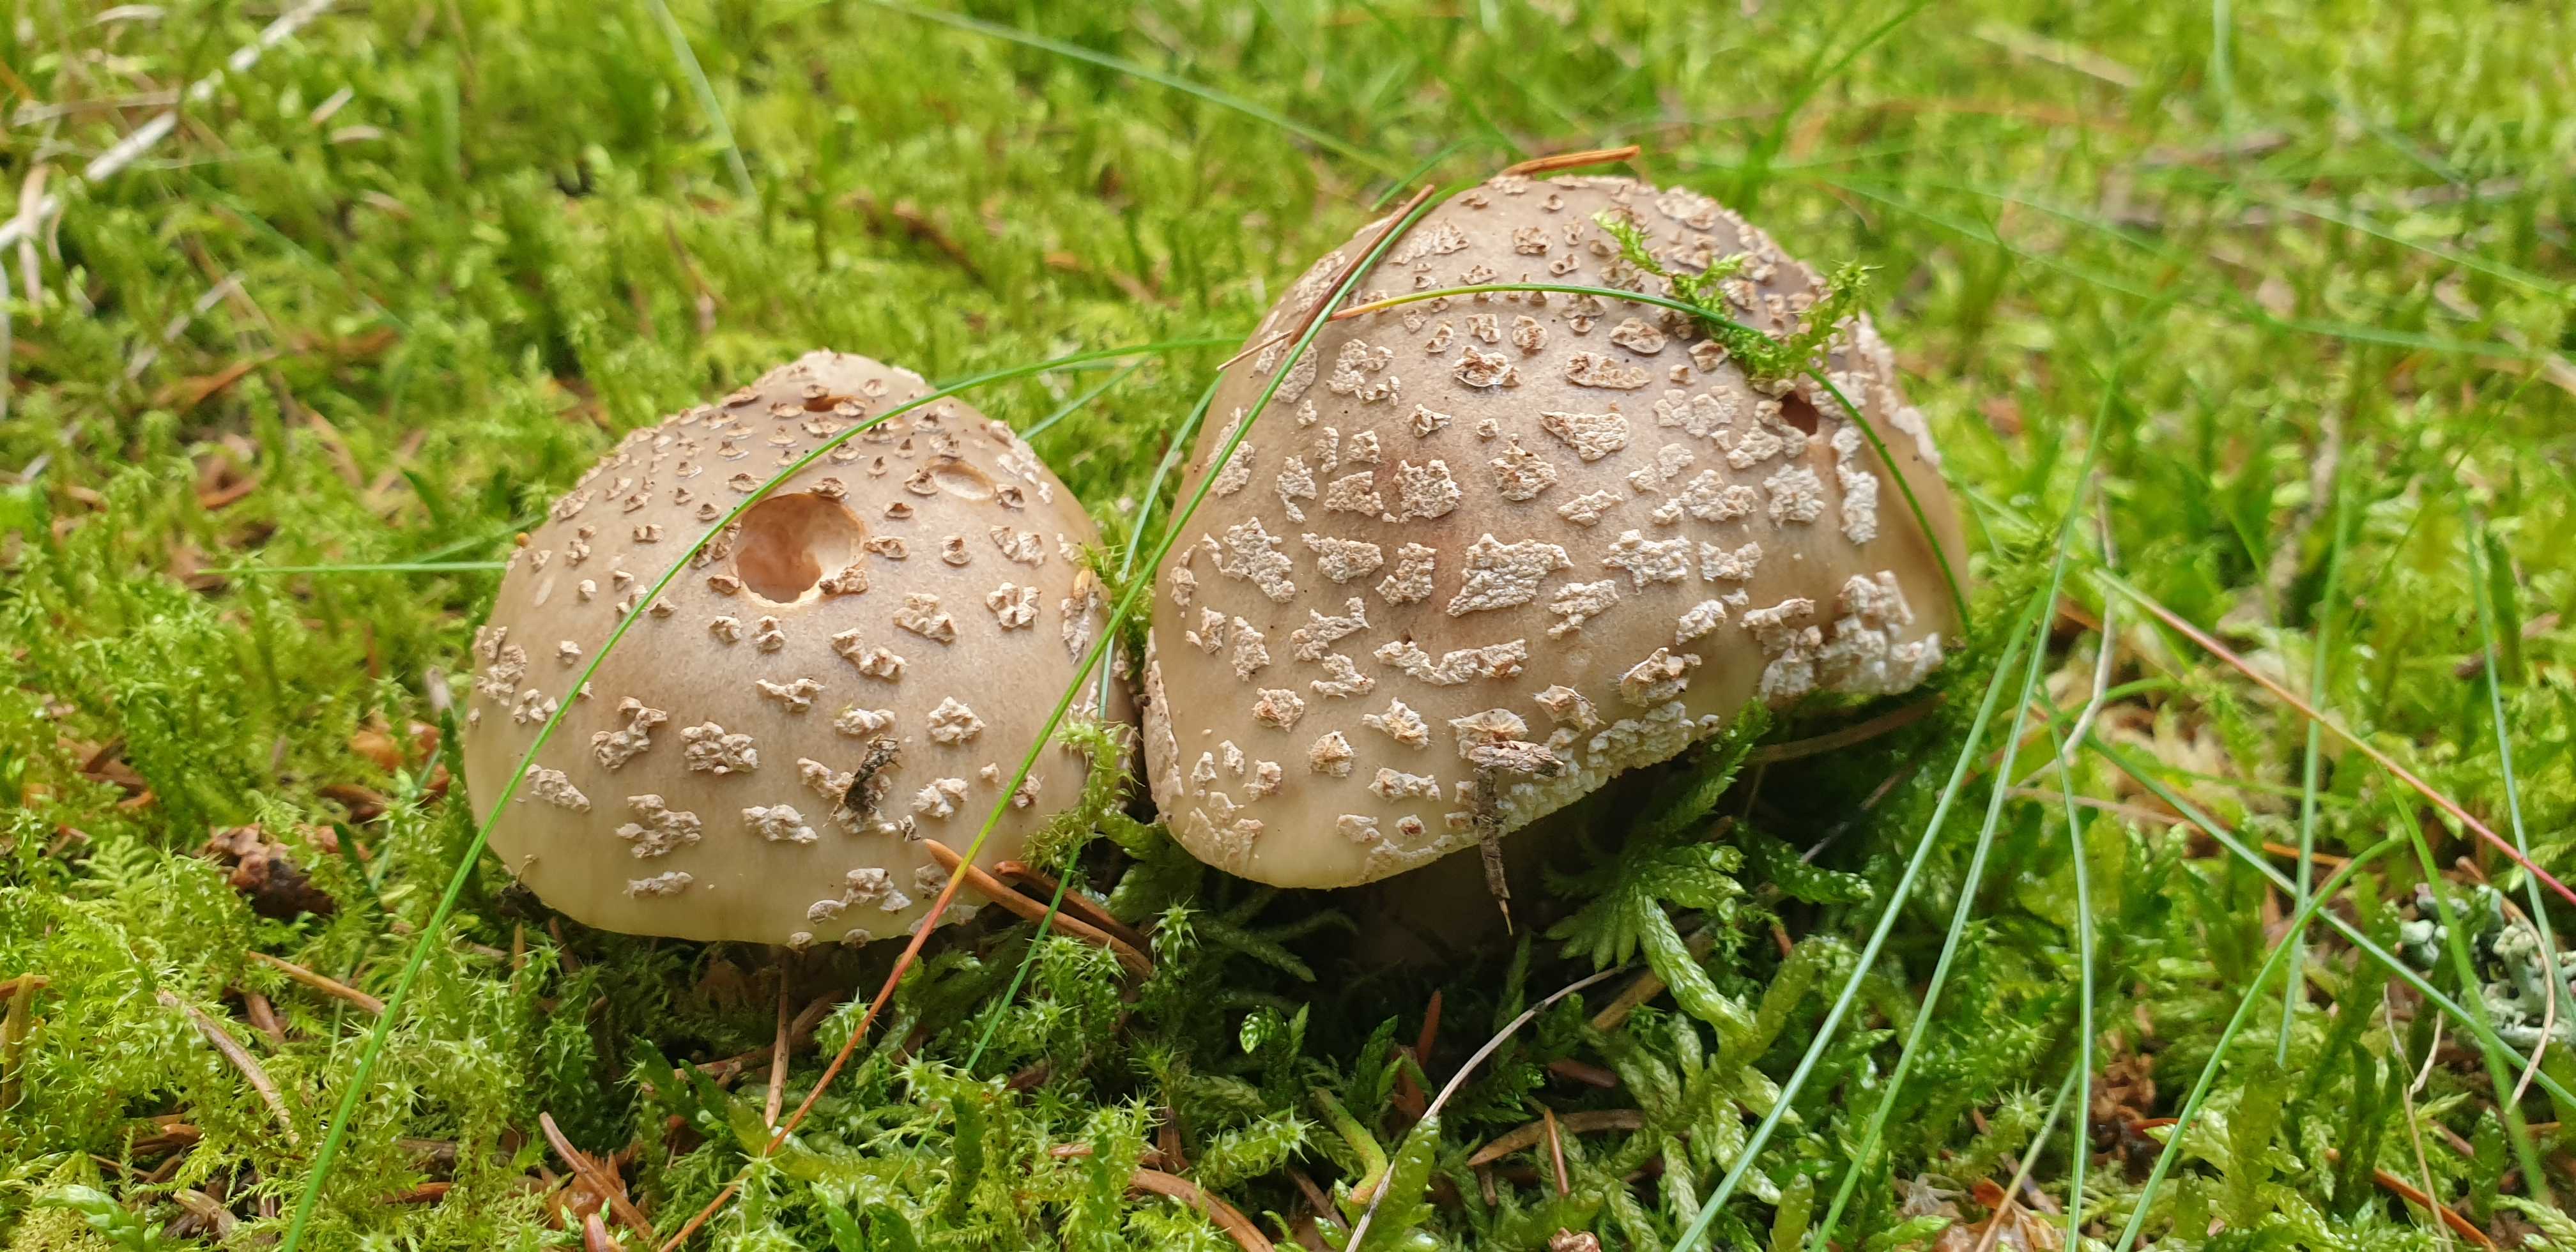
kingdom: Fungi
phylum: Basidiomycota
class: Agaricomycetes
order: Agaricales
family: Amanitaceae
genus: Amanita
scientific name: Amanita rubescens
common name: rødmende fluesvamp
